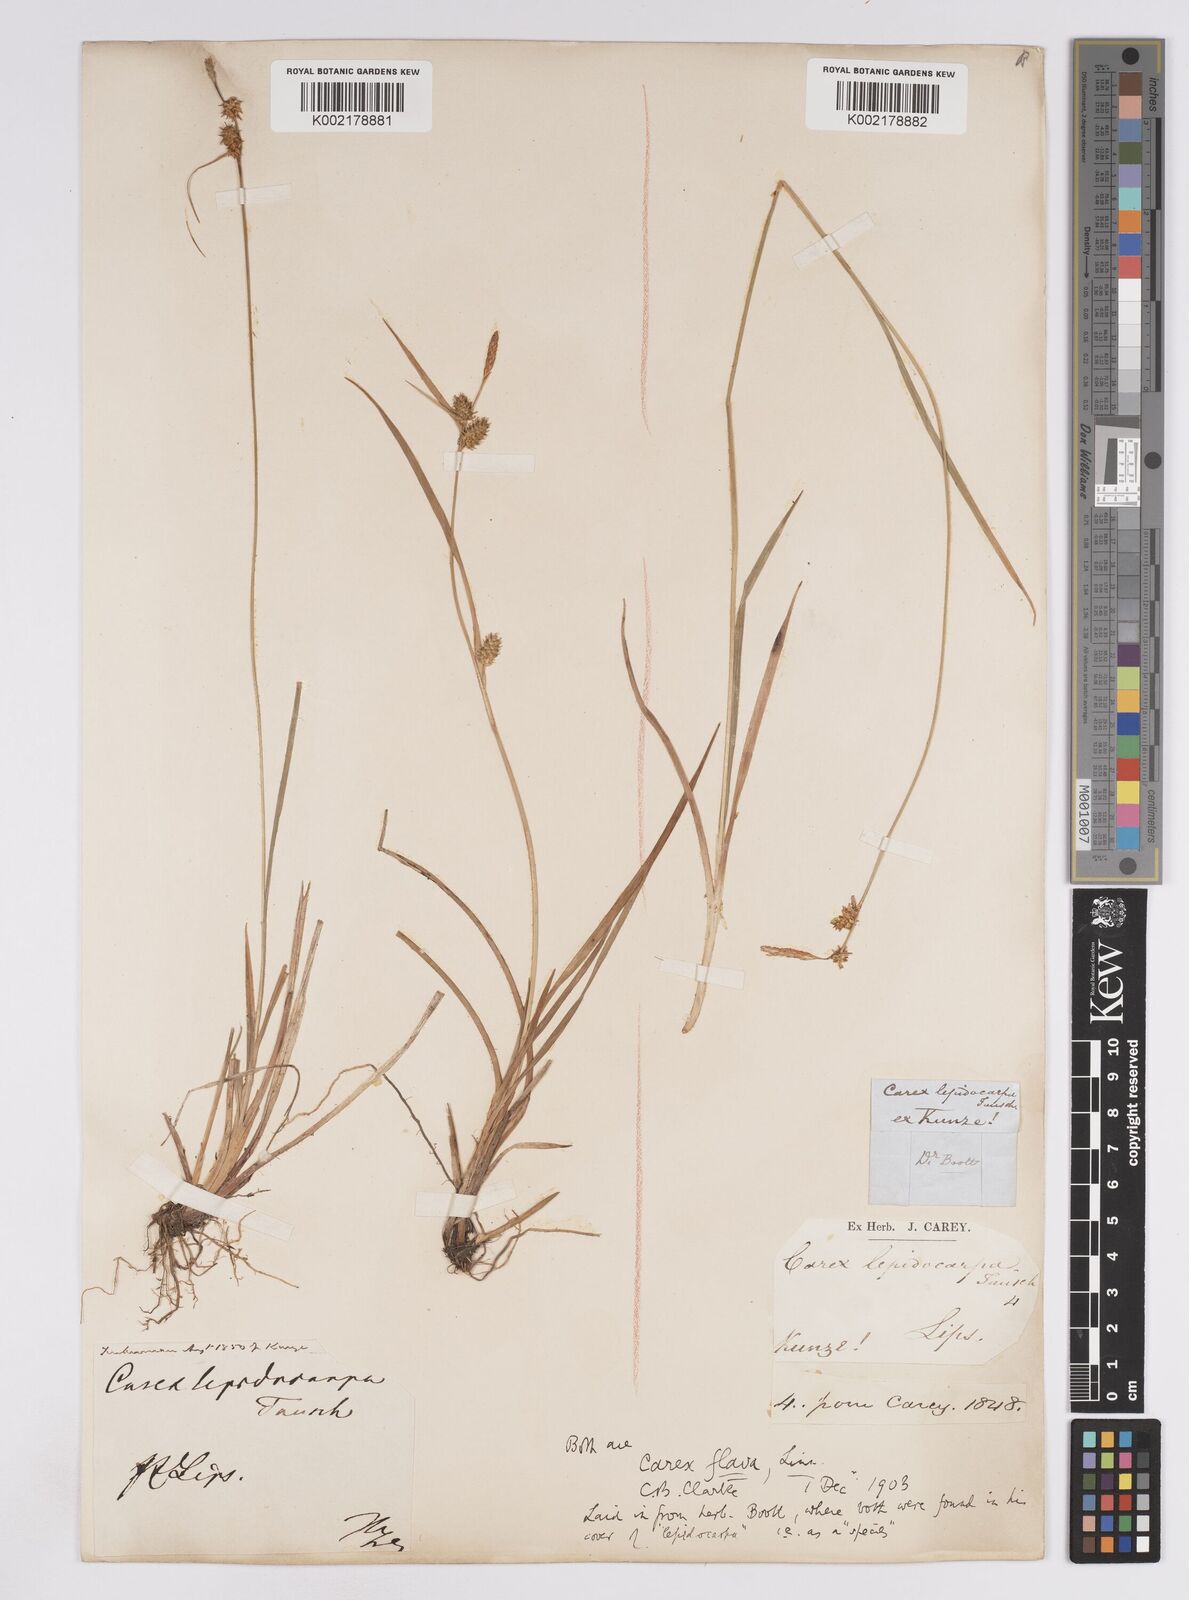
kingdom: Plantae
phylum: Tracheophyta
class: Liliopsida
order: Poales
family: Cyperaceae
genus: Carex
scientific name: Carex lepidocarpa
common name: Long-stalked yellow-sedge
